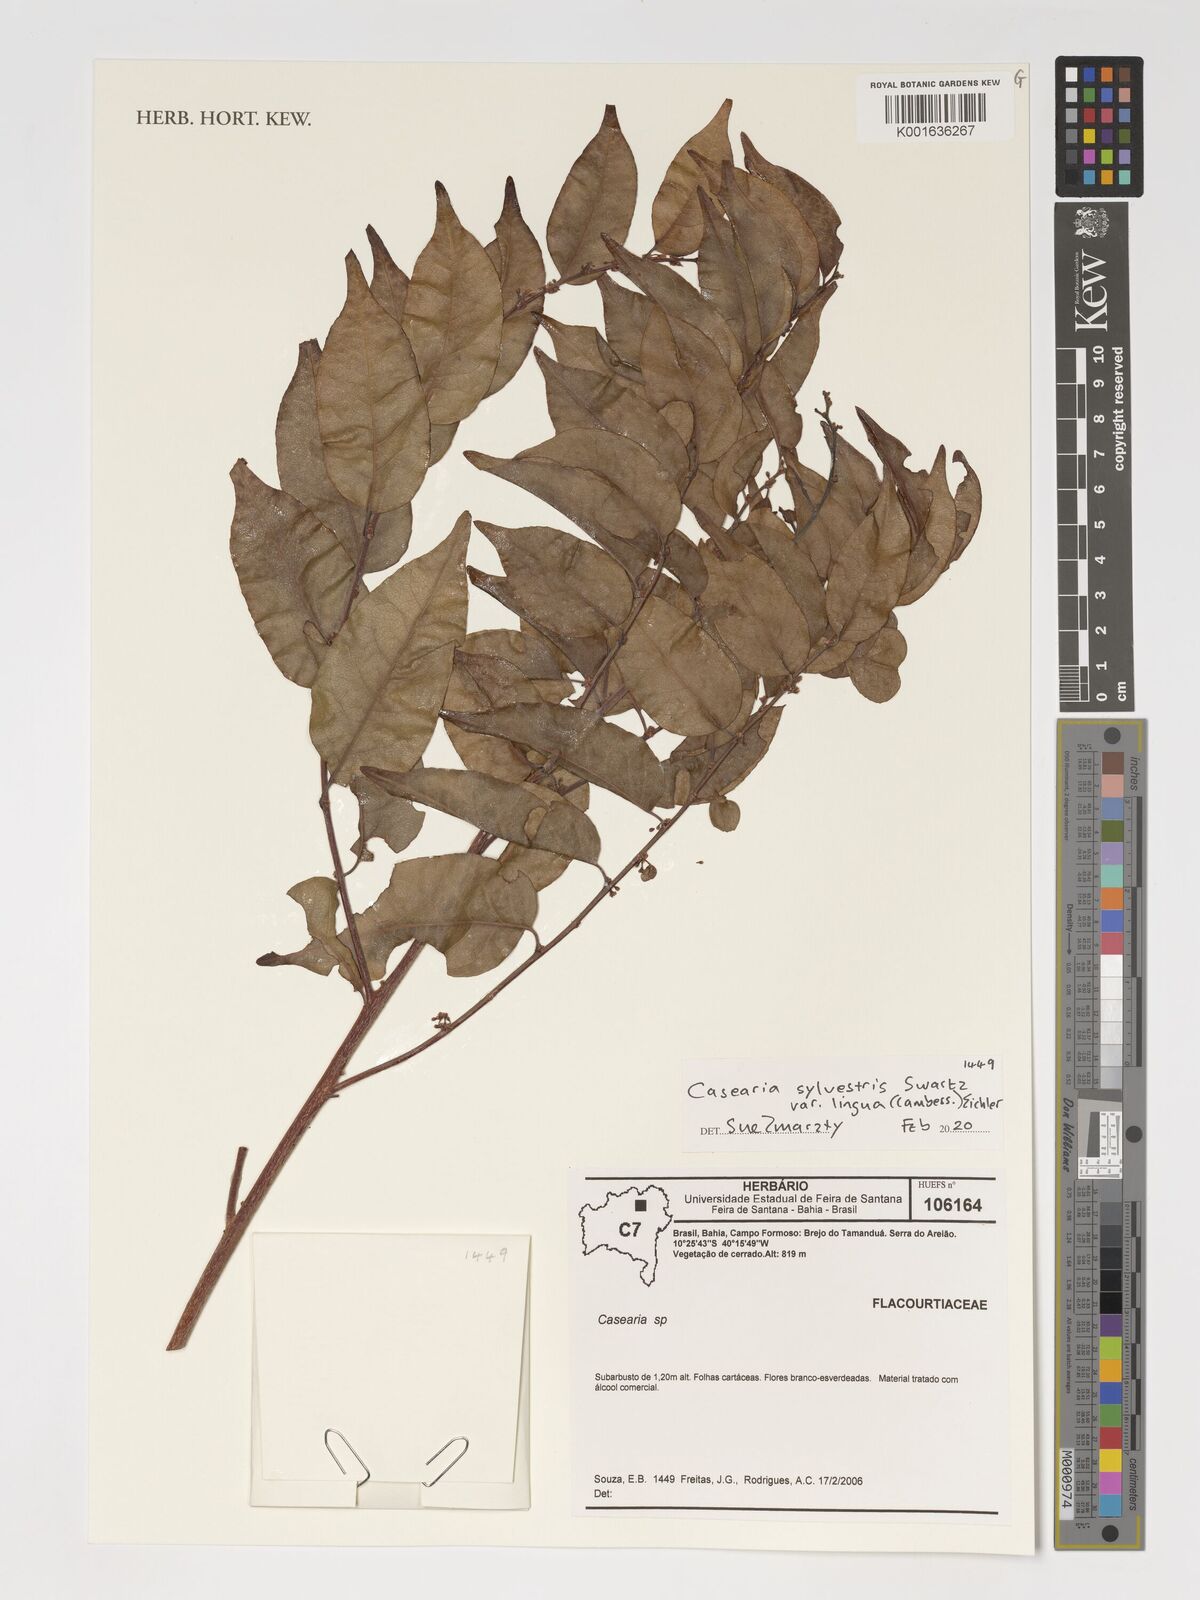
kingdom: Plantae
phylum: Tracheophyta
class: Magnoliopsida
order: Malpighiales
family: Salicaceae
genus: Casearia
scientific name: Casearia sylvestris
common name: Wild sage
